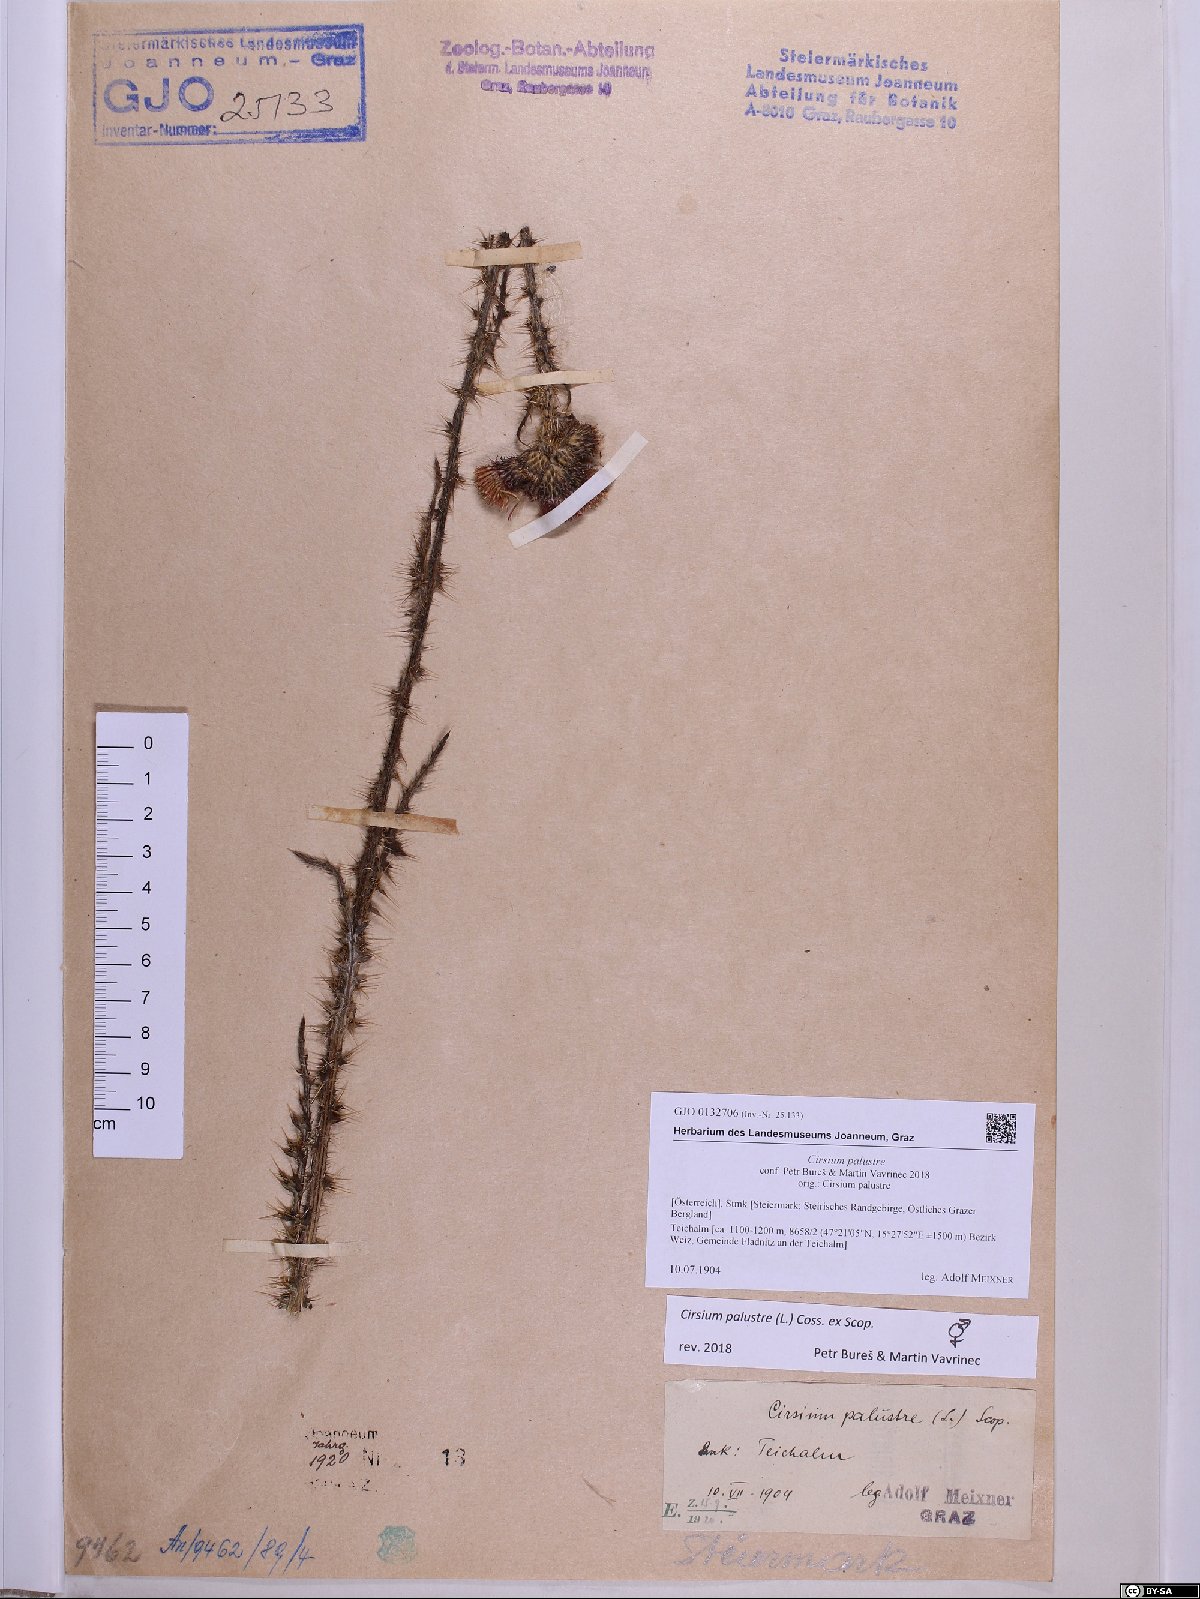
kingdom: Plantae
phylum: Tracheophyta
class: Magnoliopsida
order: Asterales
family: Asteraceae
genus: Cirsium
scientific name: Cirsium palustre
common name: Marsh thistle
